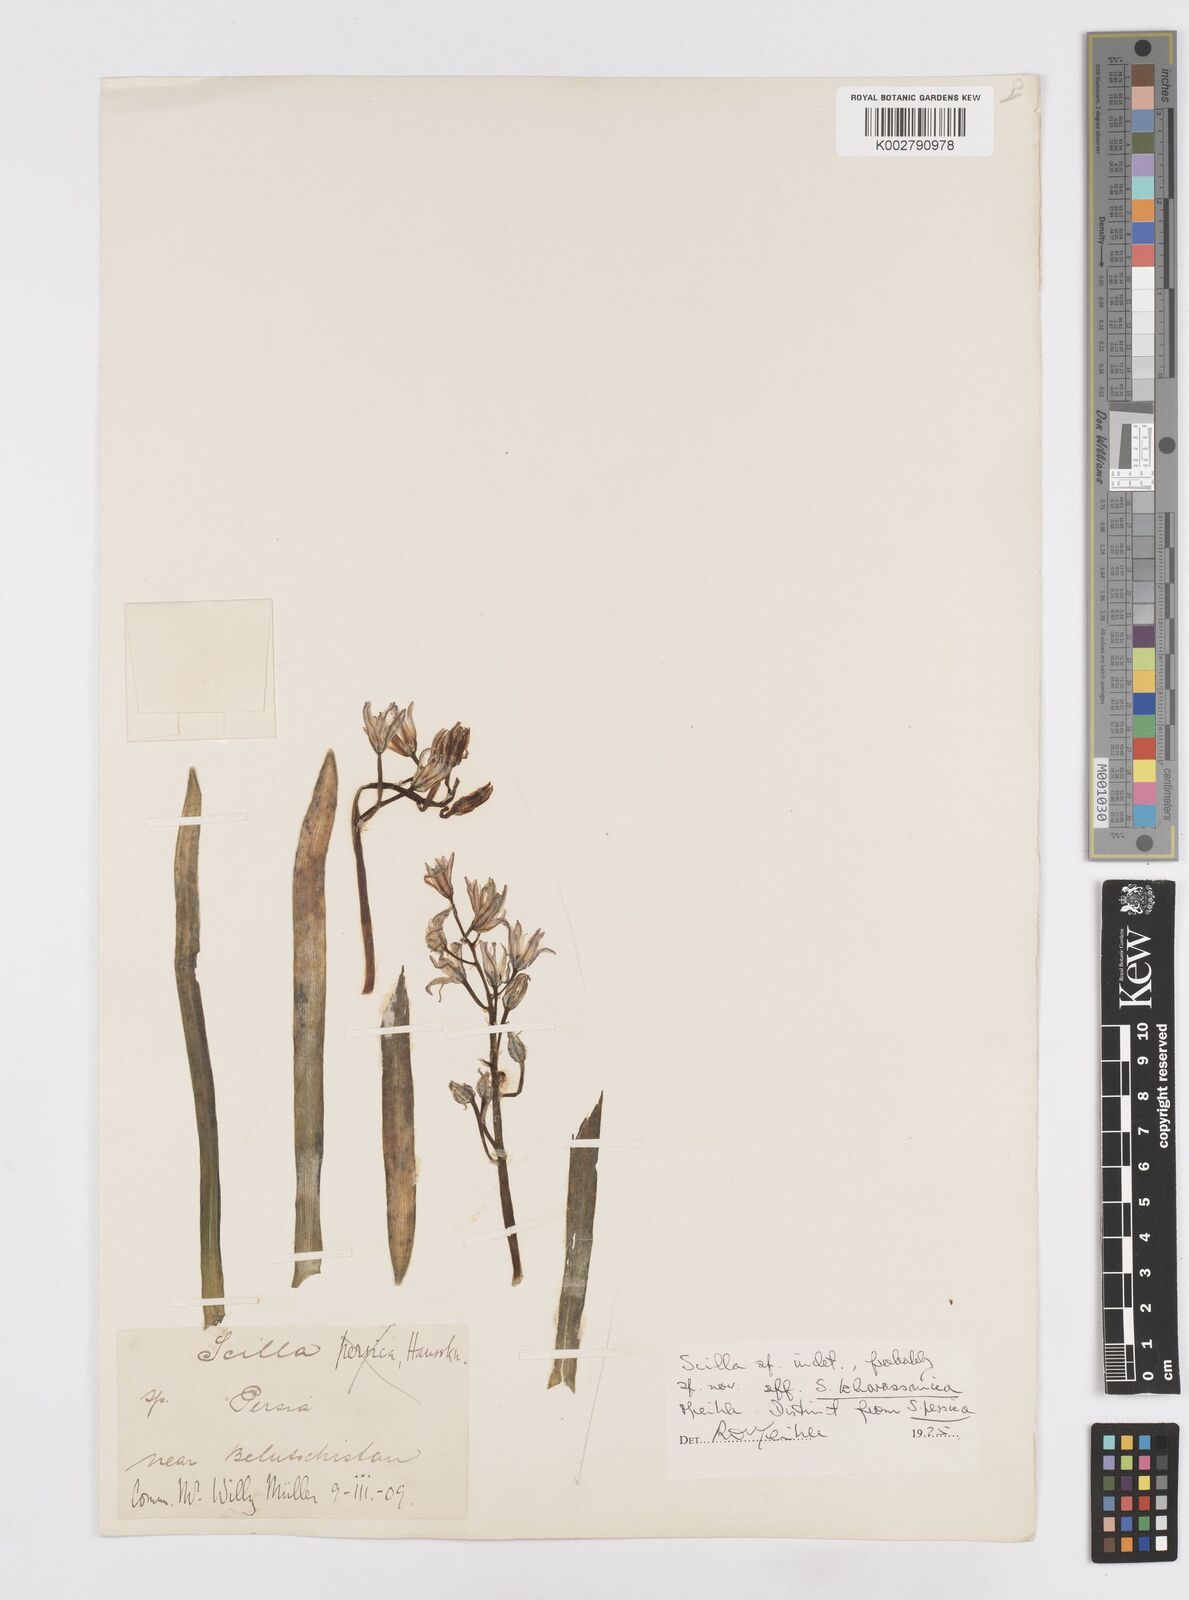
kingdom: Plantae
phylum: Tracheophyta
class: Liliopsida
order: Asparagales
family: Asparagaceae
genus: Scilla
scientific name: Scilla
